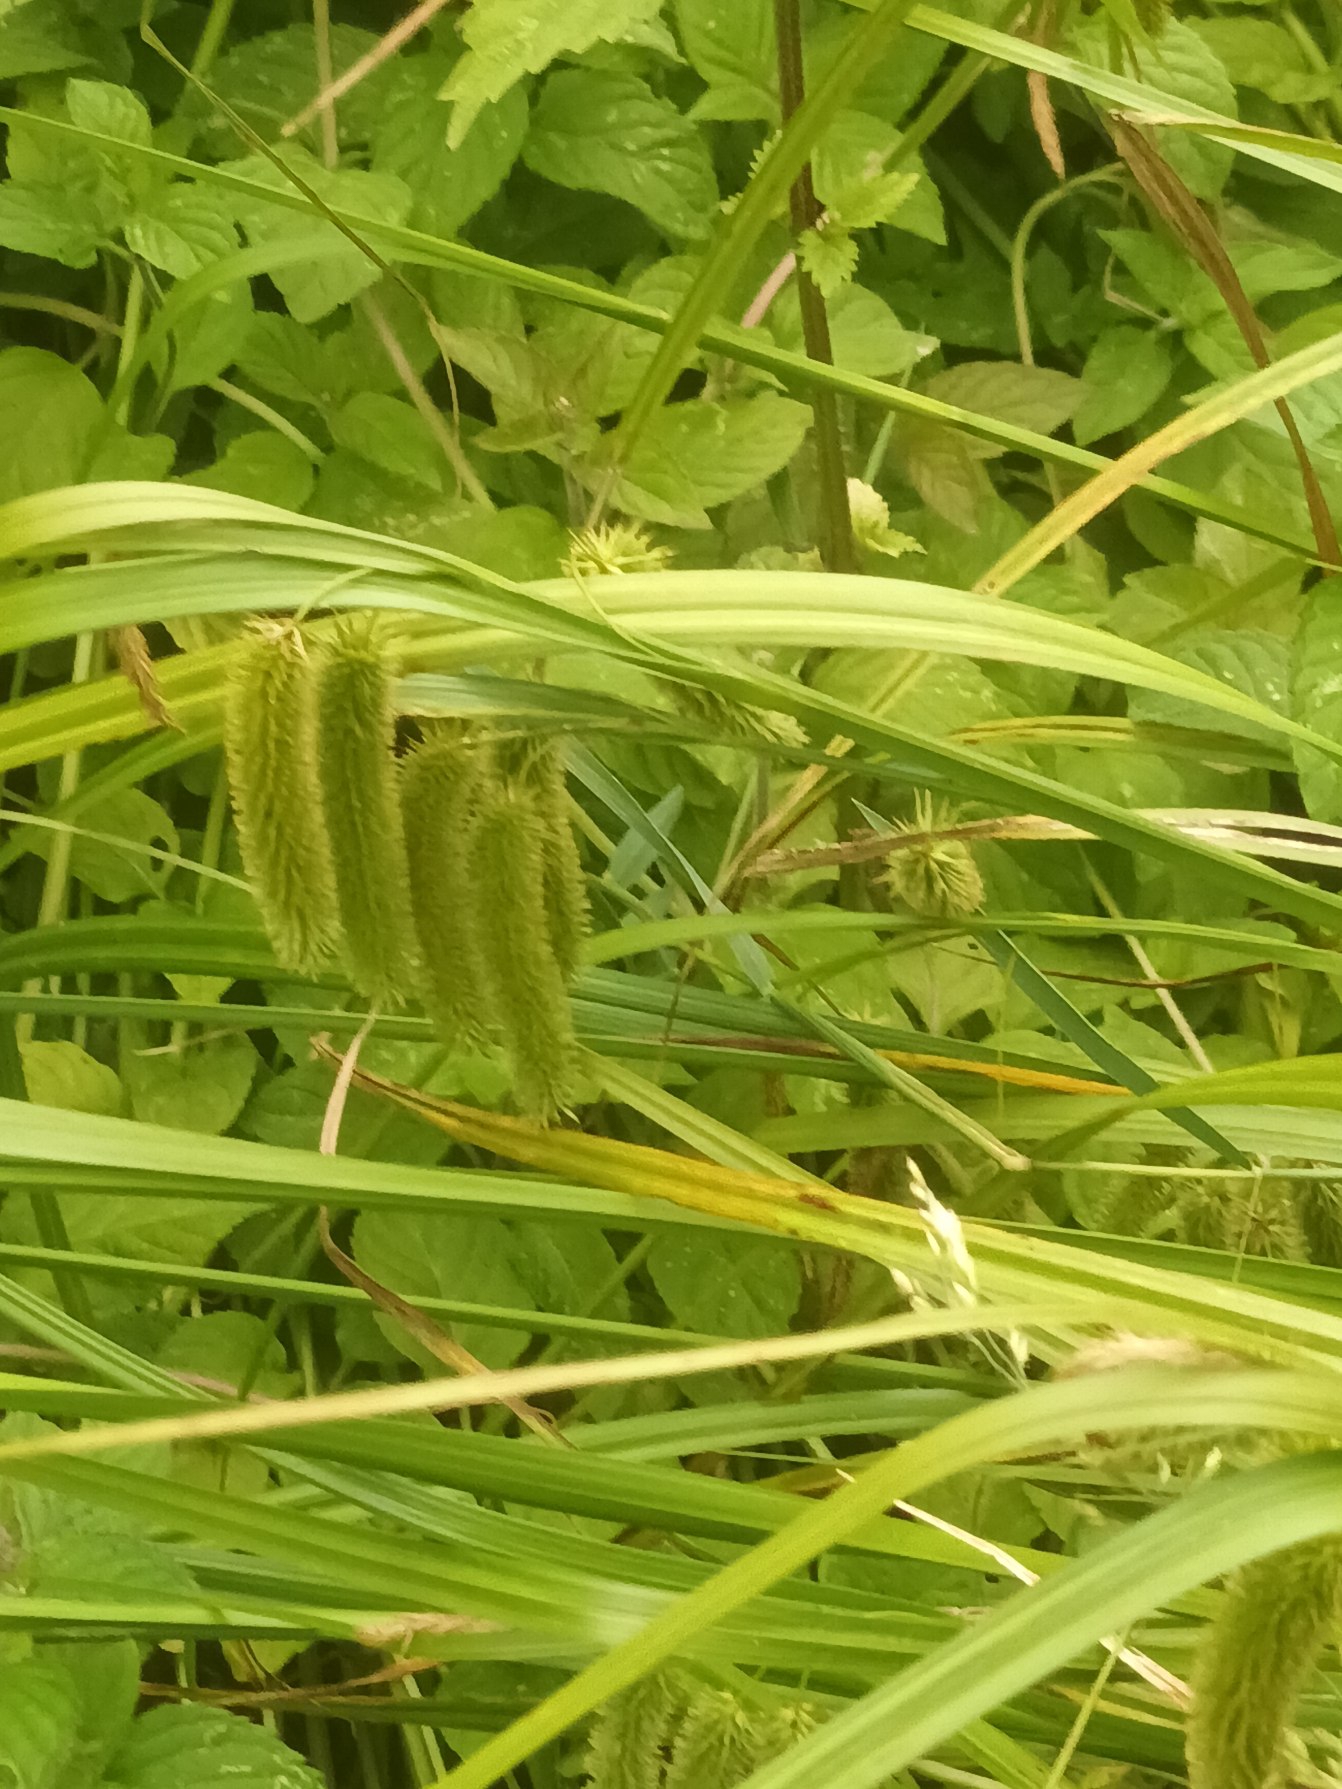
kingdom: Plantae
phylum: Tracheophyta
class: Liliopsida
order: Poales
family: Cyperaceae
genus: Carex
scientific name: Carex pseudocyperus
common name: Knippe-star
